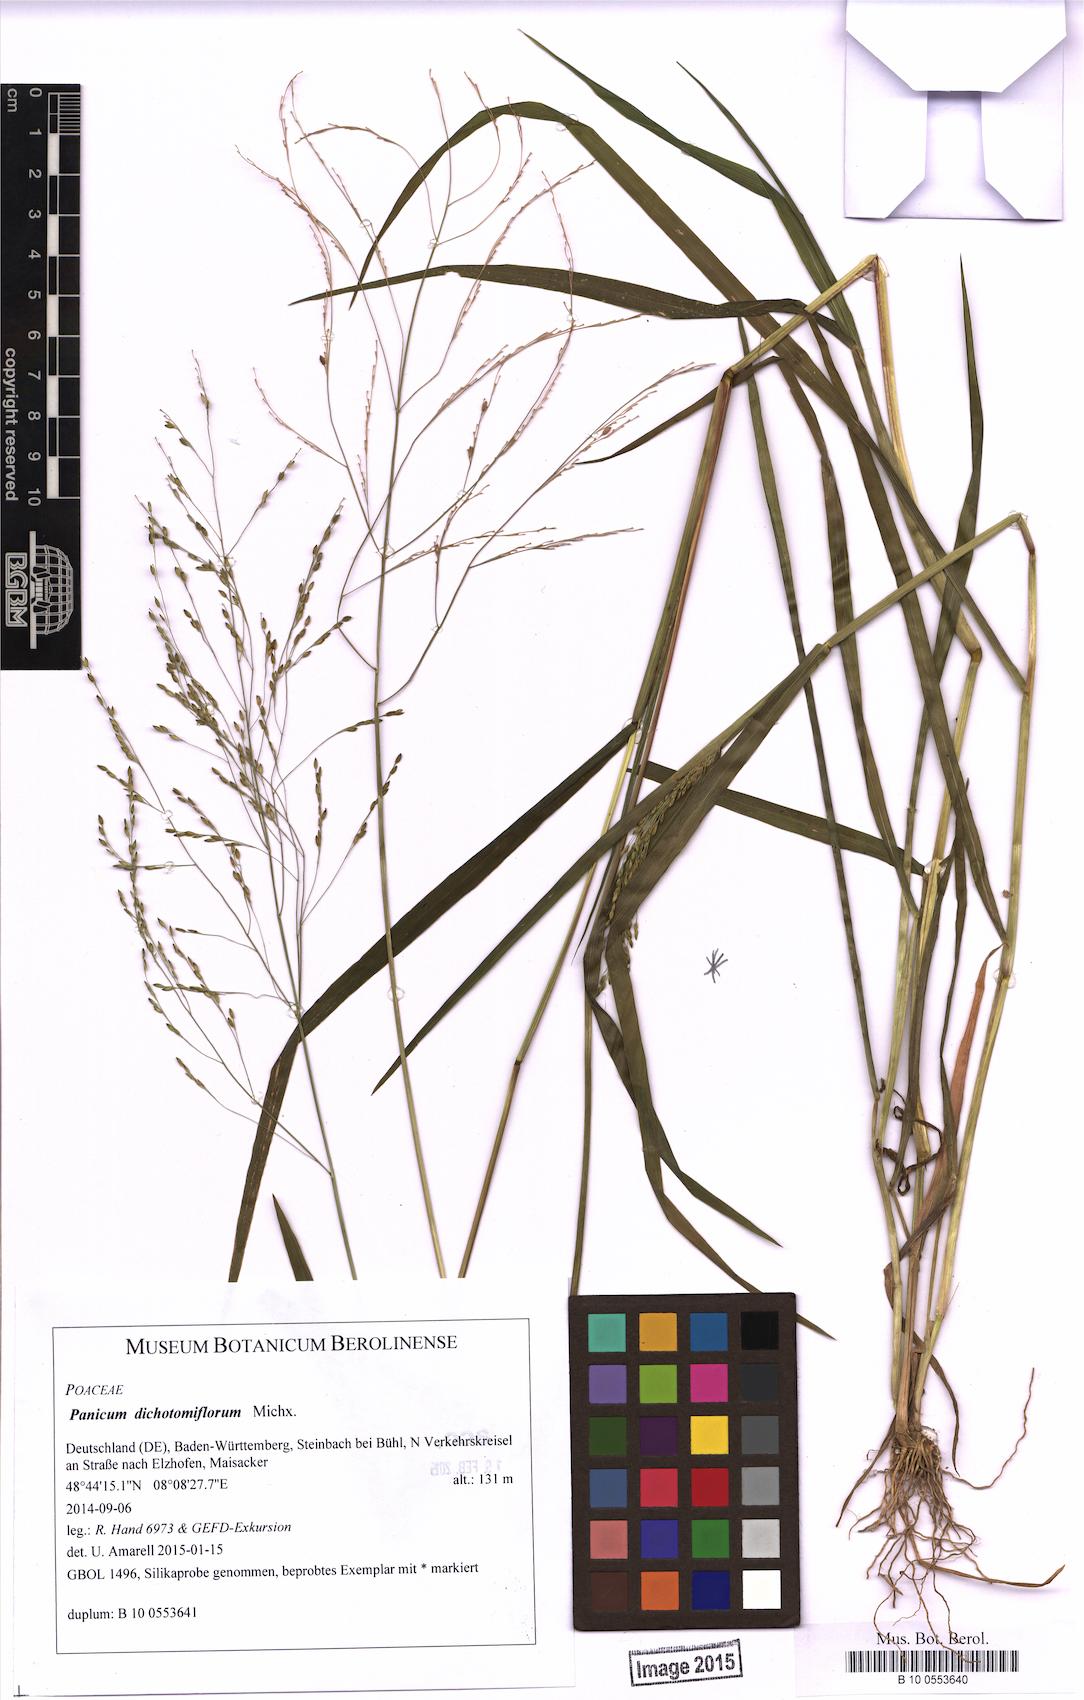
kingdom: Plantae
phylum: Tracheophyta
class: Liliopsida
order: Poales
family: Poaceae
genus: Panicum
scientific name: Panicum dichotomiflorum
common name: Autumn millet
